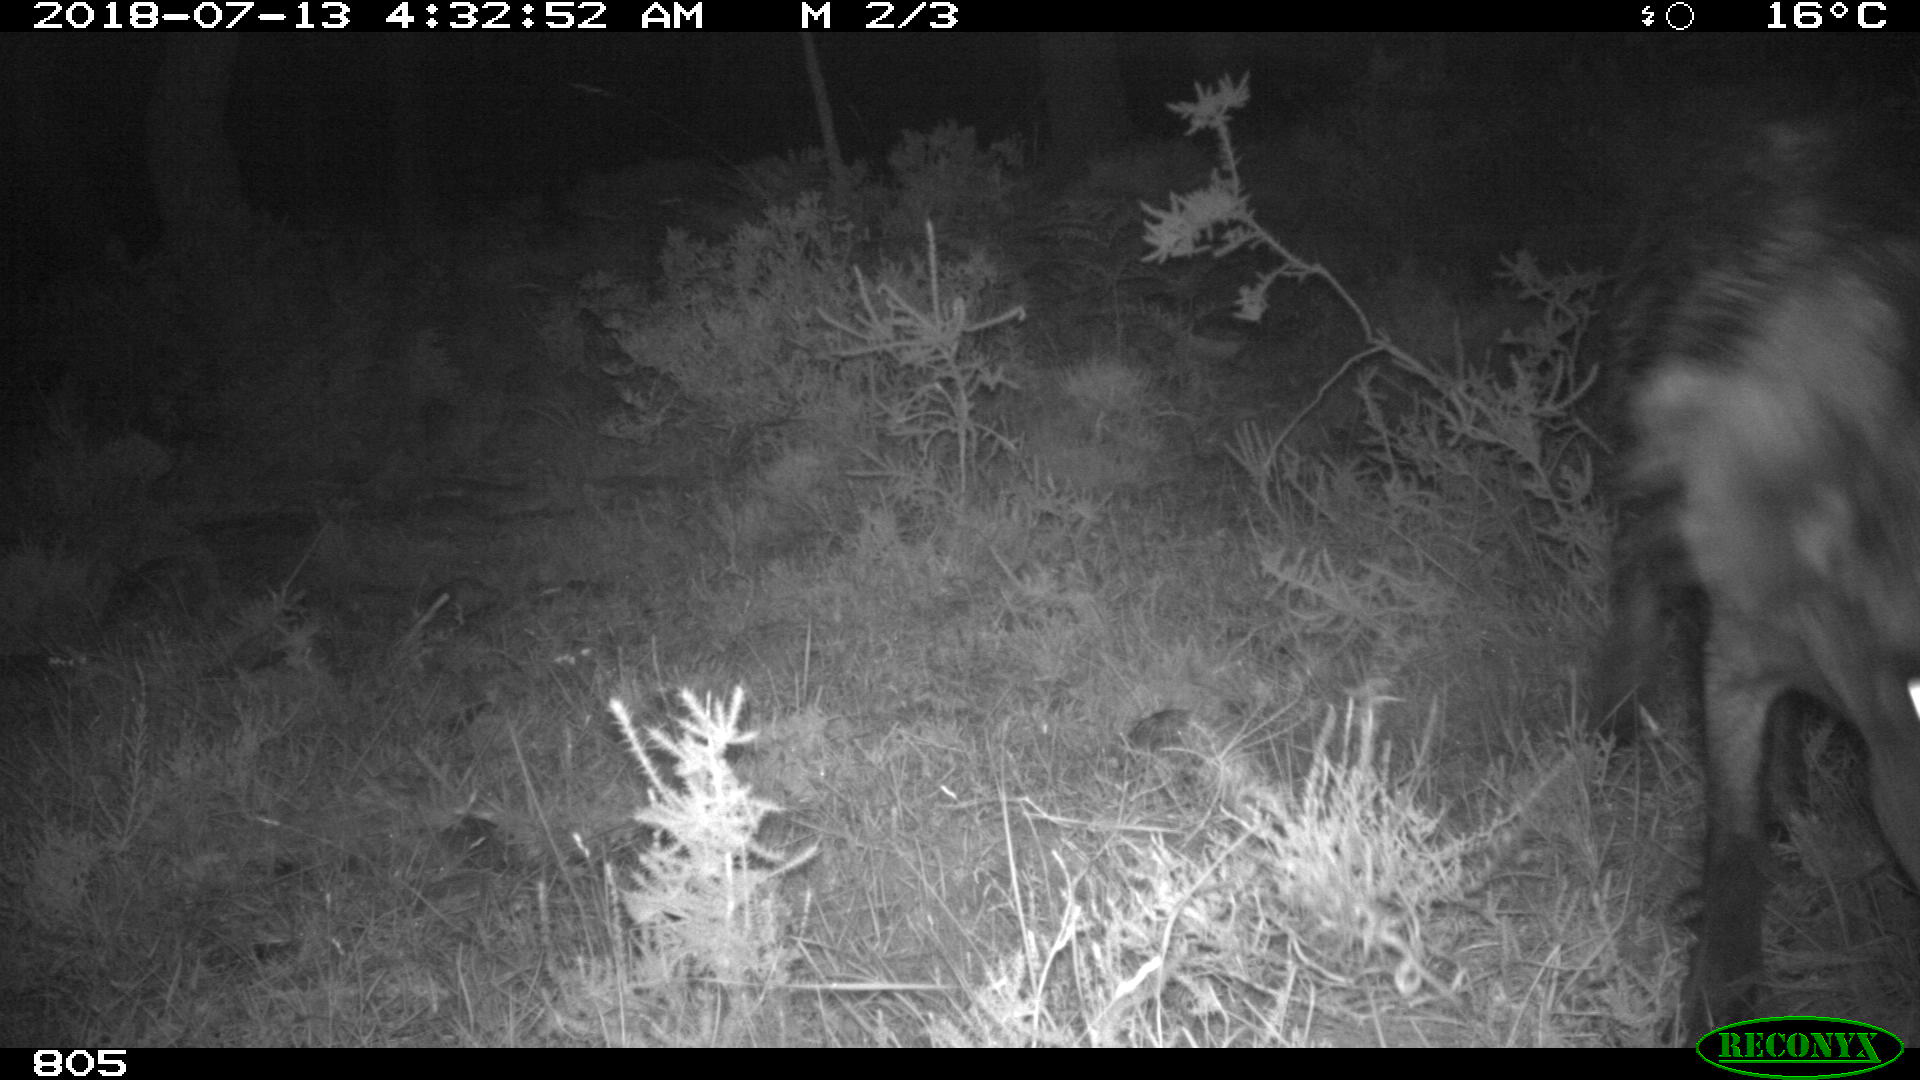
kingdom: Animalia
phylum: Chordata
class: Mammalia
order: Artiodactyla
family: Suidae
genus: Sus
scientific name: Sus scrofa
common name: Wild boar
